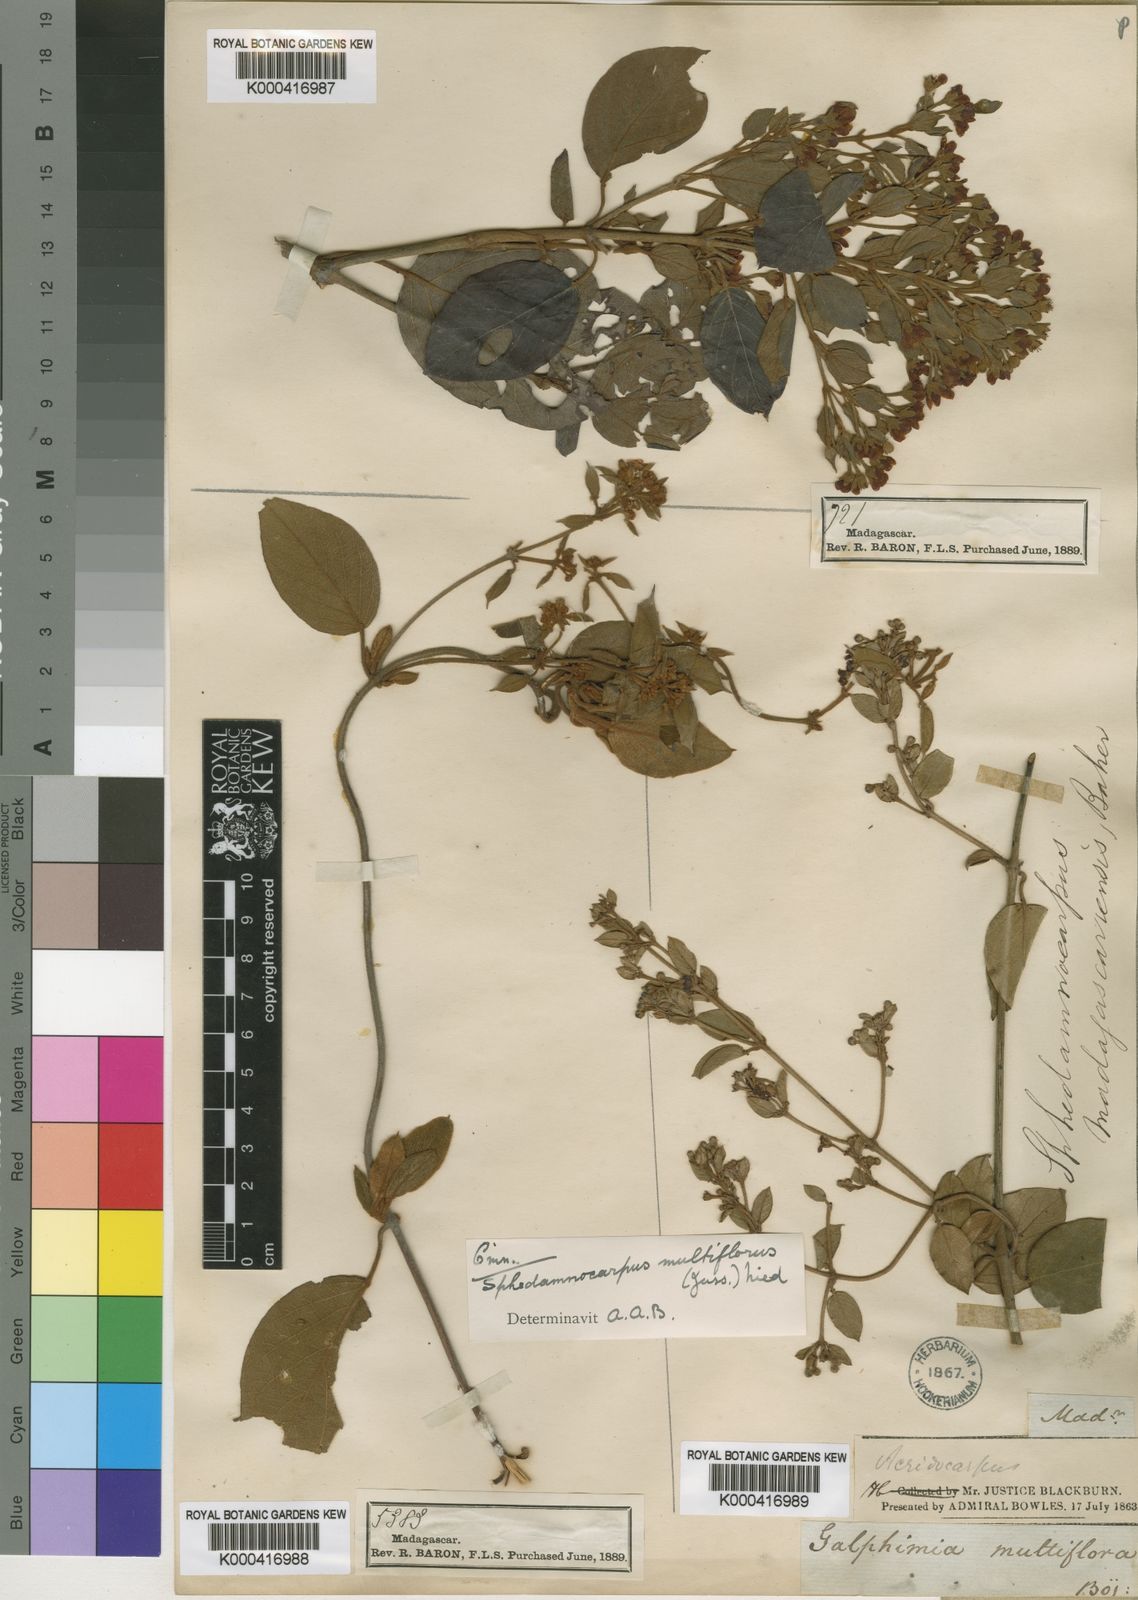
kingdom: Plantae
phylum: Tracheophyta
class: Magnoliopsida
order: Malpighiales
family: Malpighiaceae
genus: Sphedamnocarpus
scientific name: Sphedamnocarpus multiflorus
